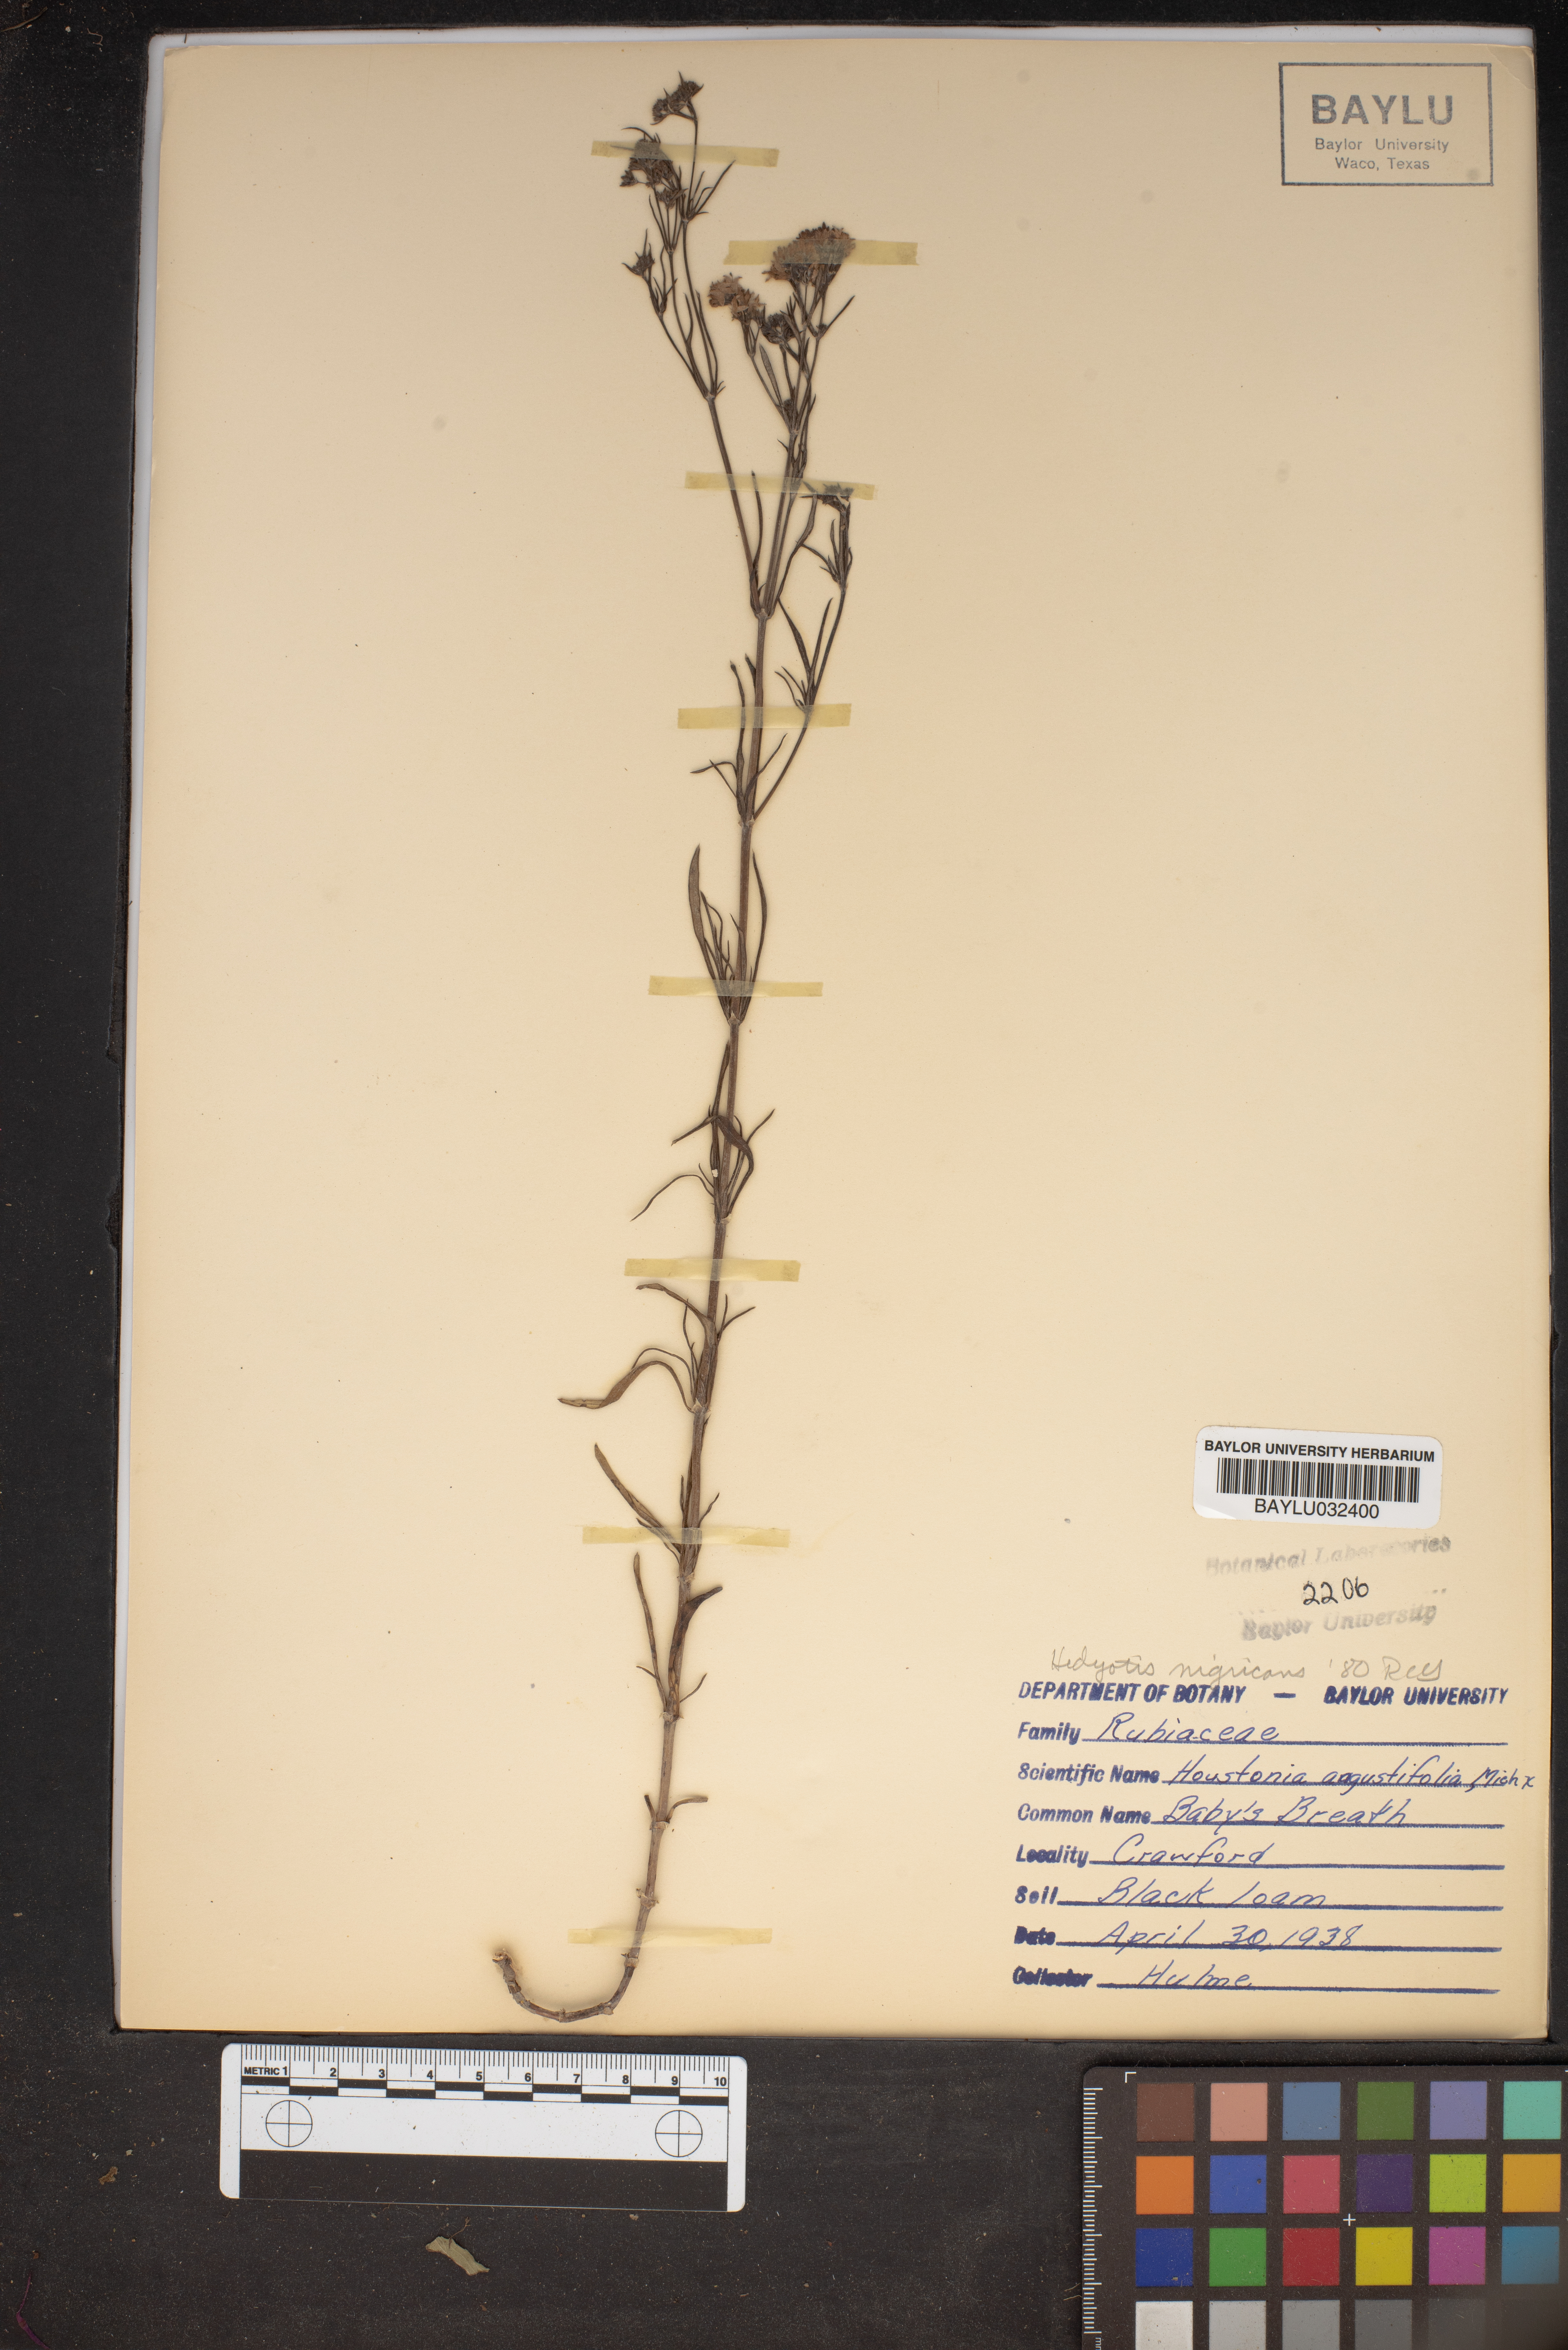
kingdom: Plantae
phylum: Tracheophyta
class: Magnoliopsida
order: Gentianales
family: Rubiaceae
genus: Stenaria
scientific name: Stenaria nigricans
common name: Diamondflowers
